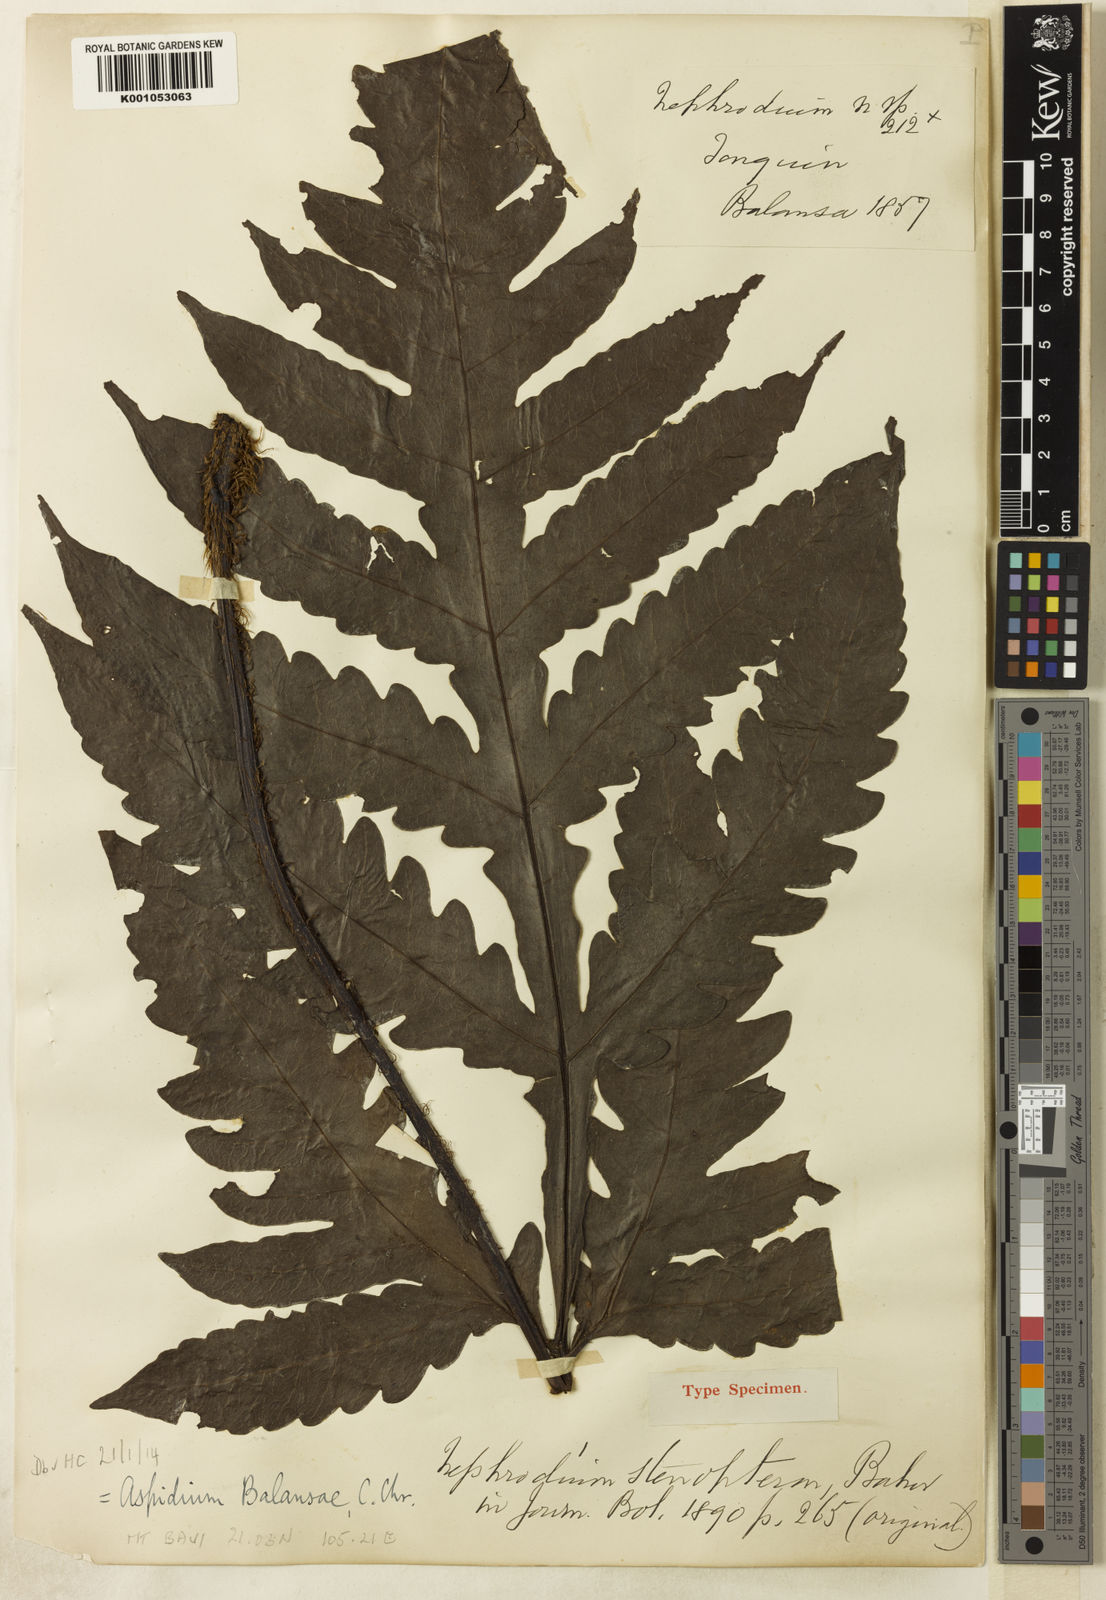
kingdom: Plantae
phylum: Tracheophyta
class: Polypodiopsida
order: Polypodiales
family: Tectariaceae
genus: Tectaria
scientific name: Tectaria balansae
